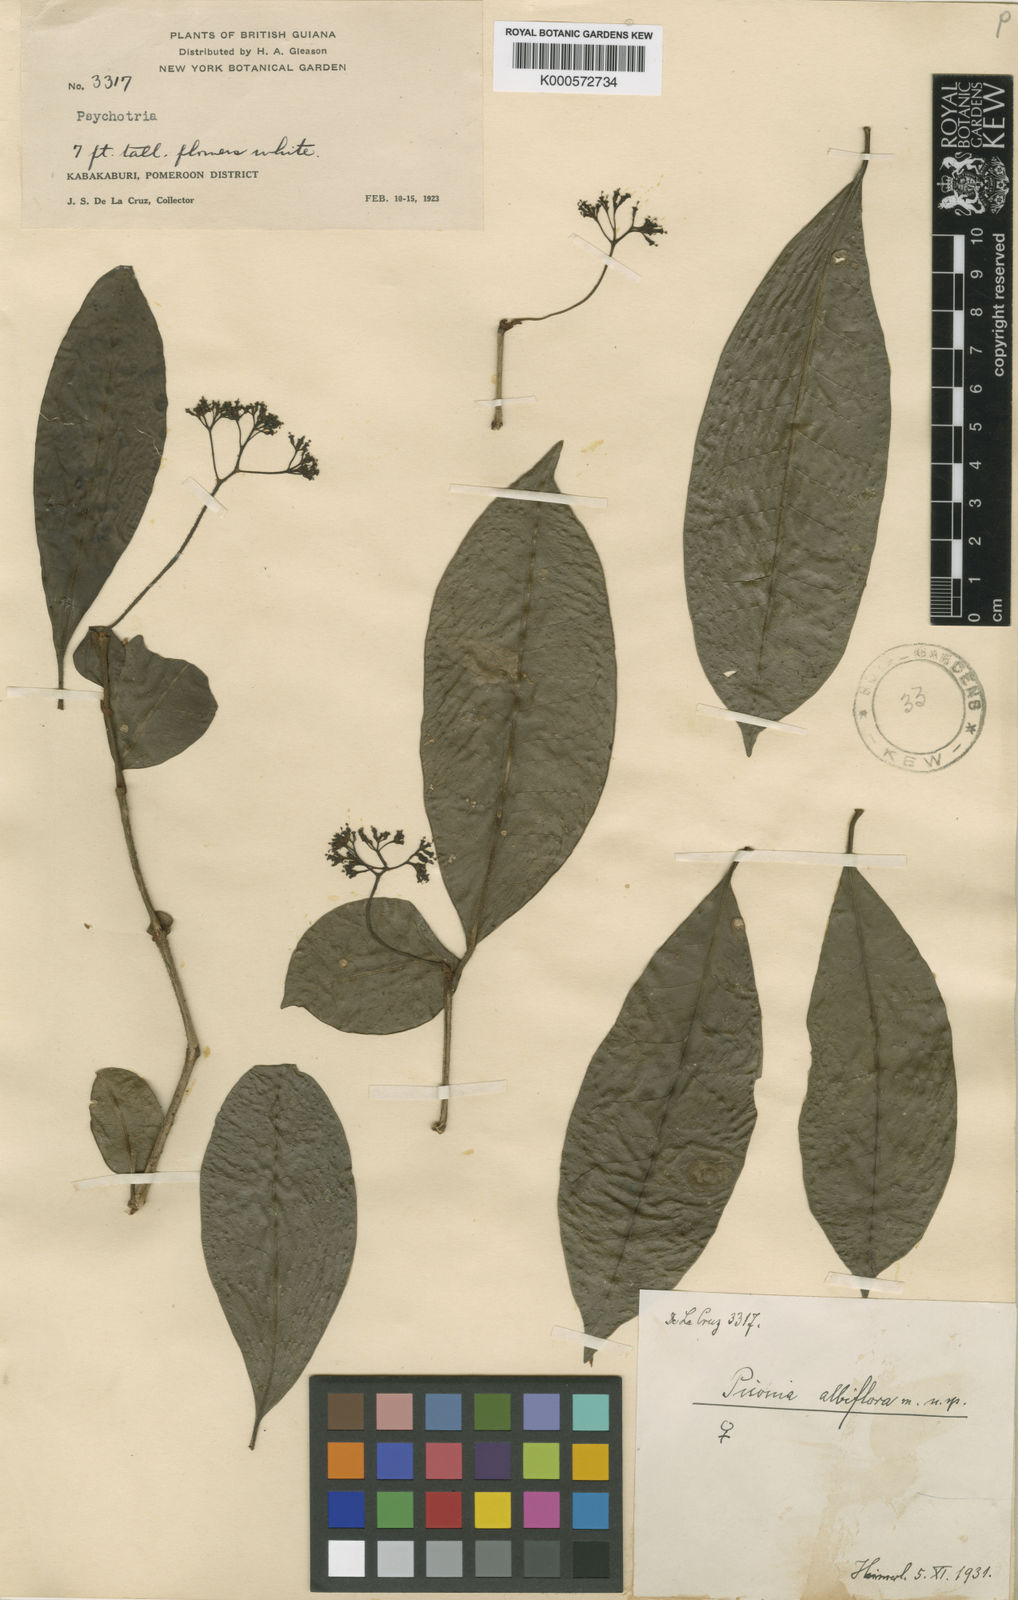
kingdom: Plantae
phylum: Tracheophyta
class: Magnoliopsida
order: Caryophyllales
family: Nyctaginaceae
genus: Guapira
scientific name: Guapira
